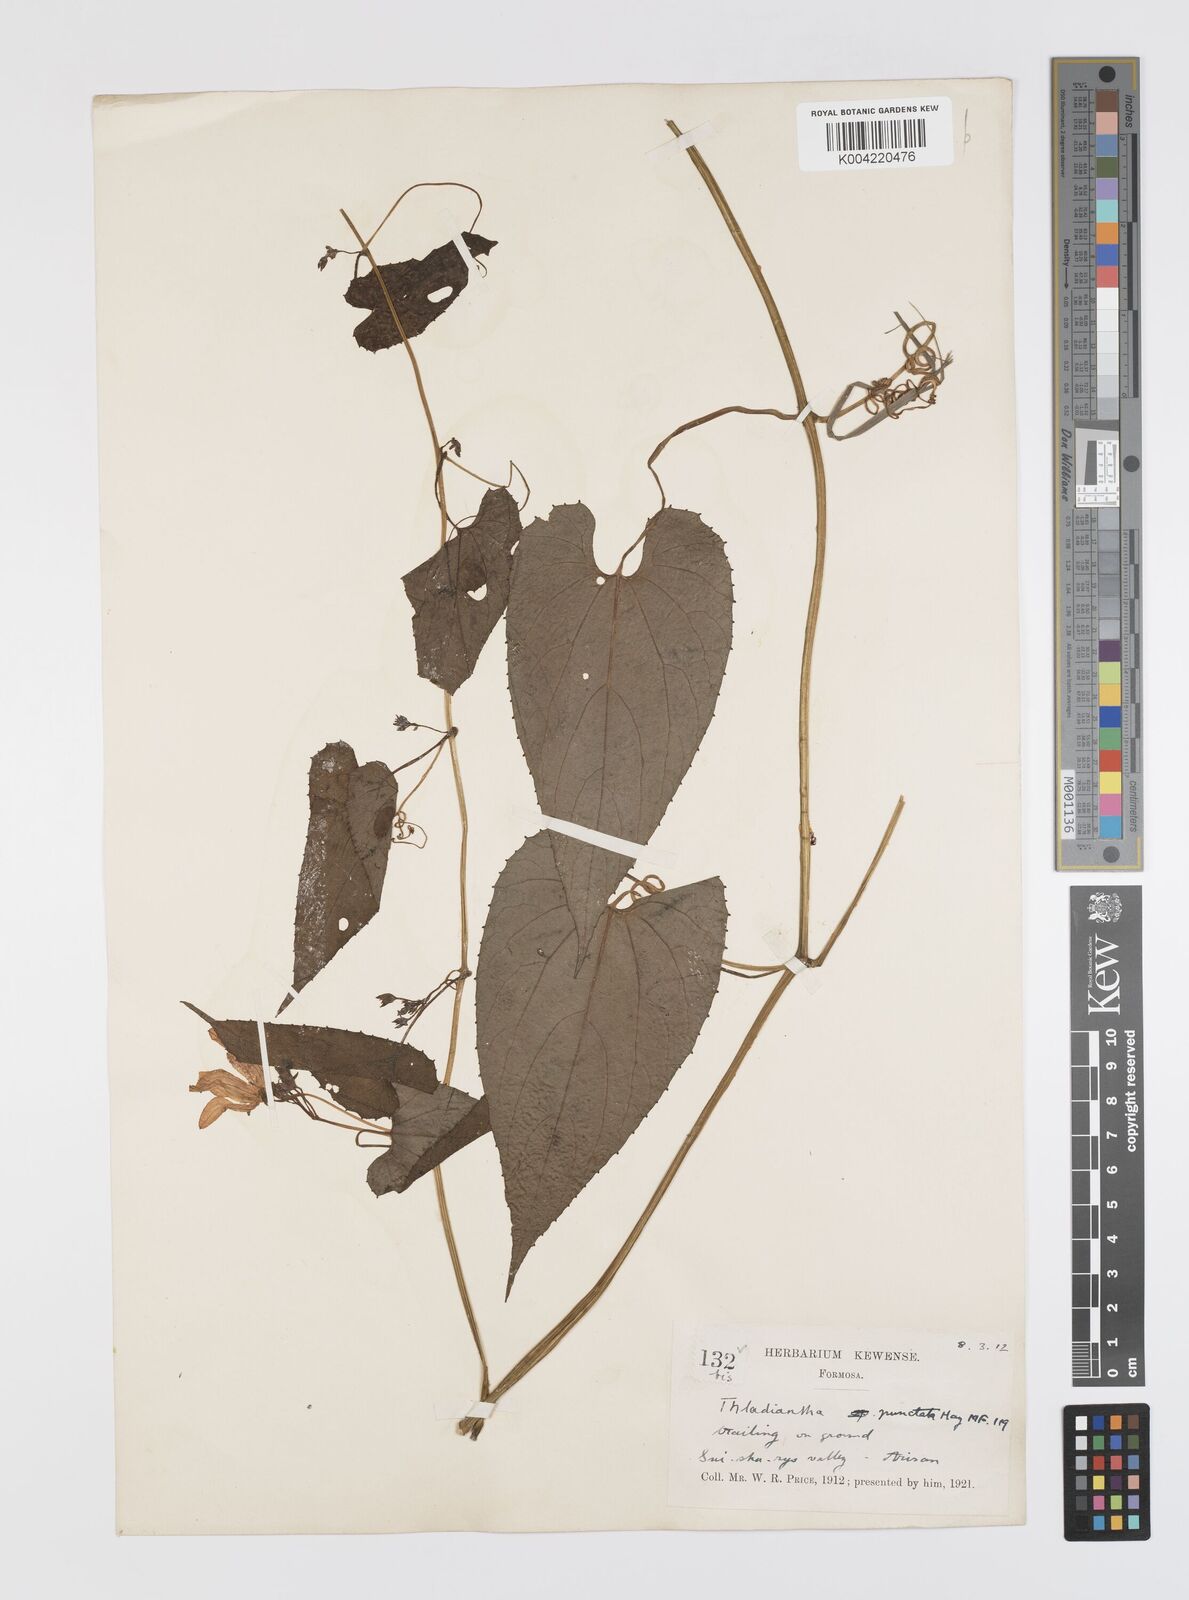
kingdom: Plantae
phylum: Tracheophyta
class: Magnoliopsida
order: Cucurbitales
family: Cucurbitaceae
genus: Thladiantha
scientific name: Thladiantha punctata
